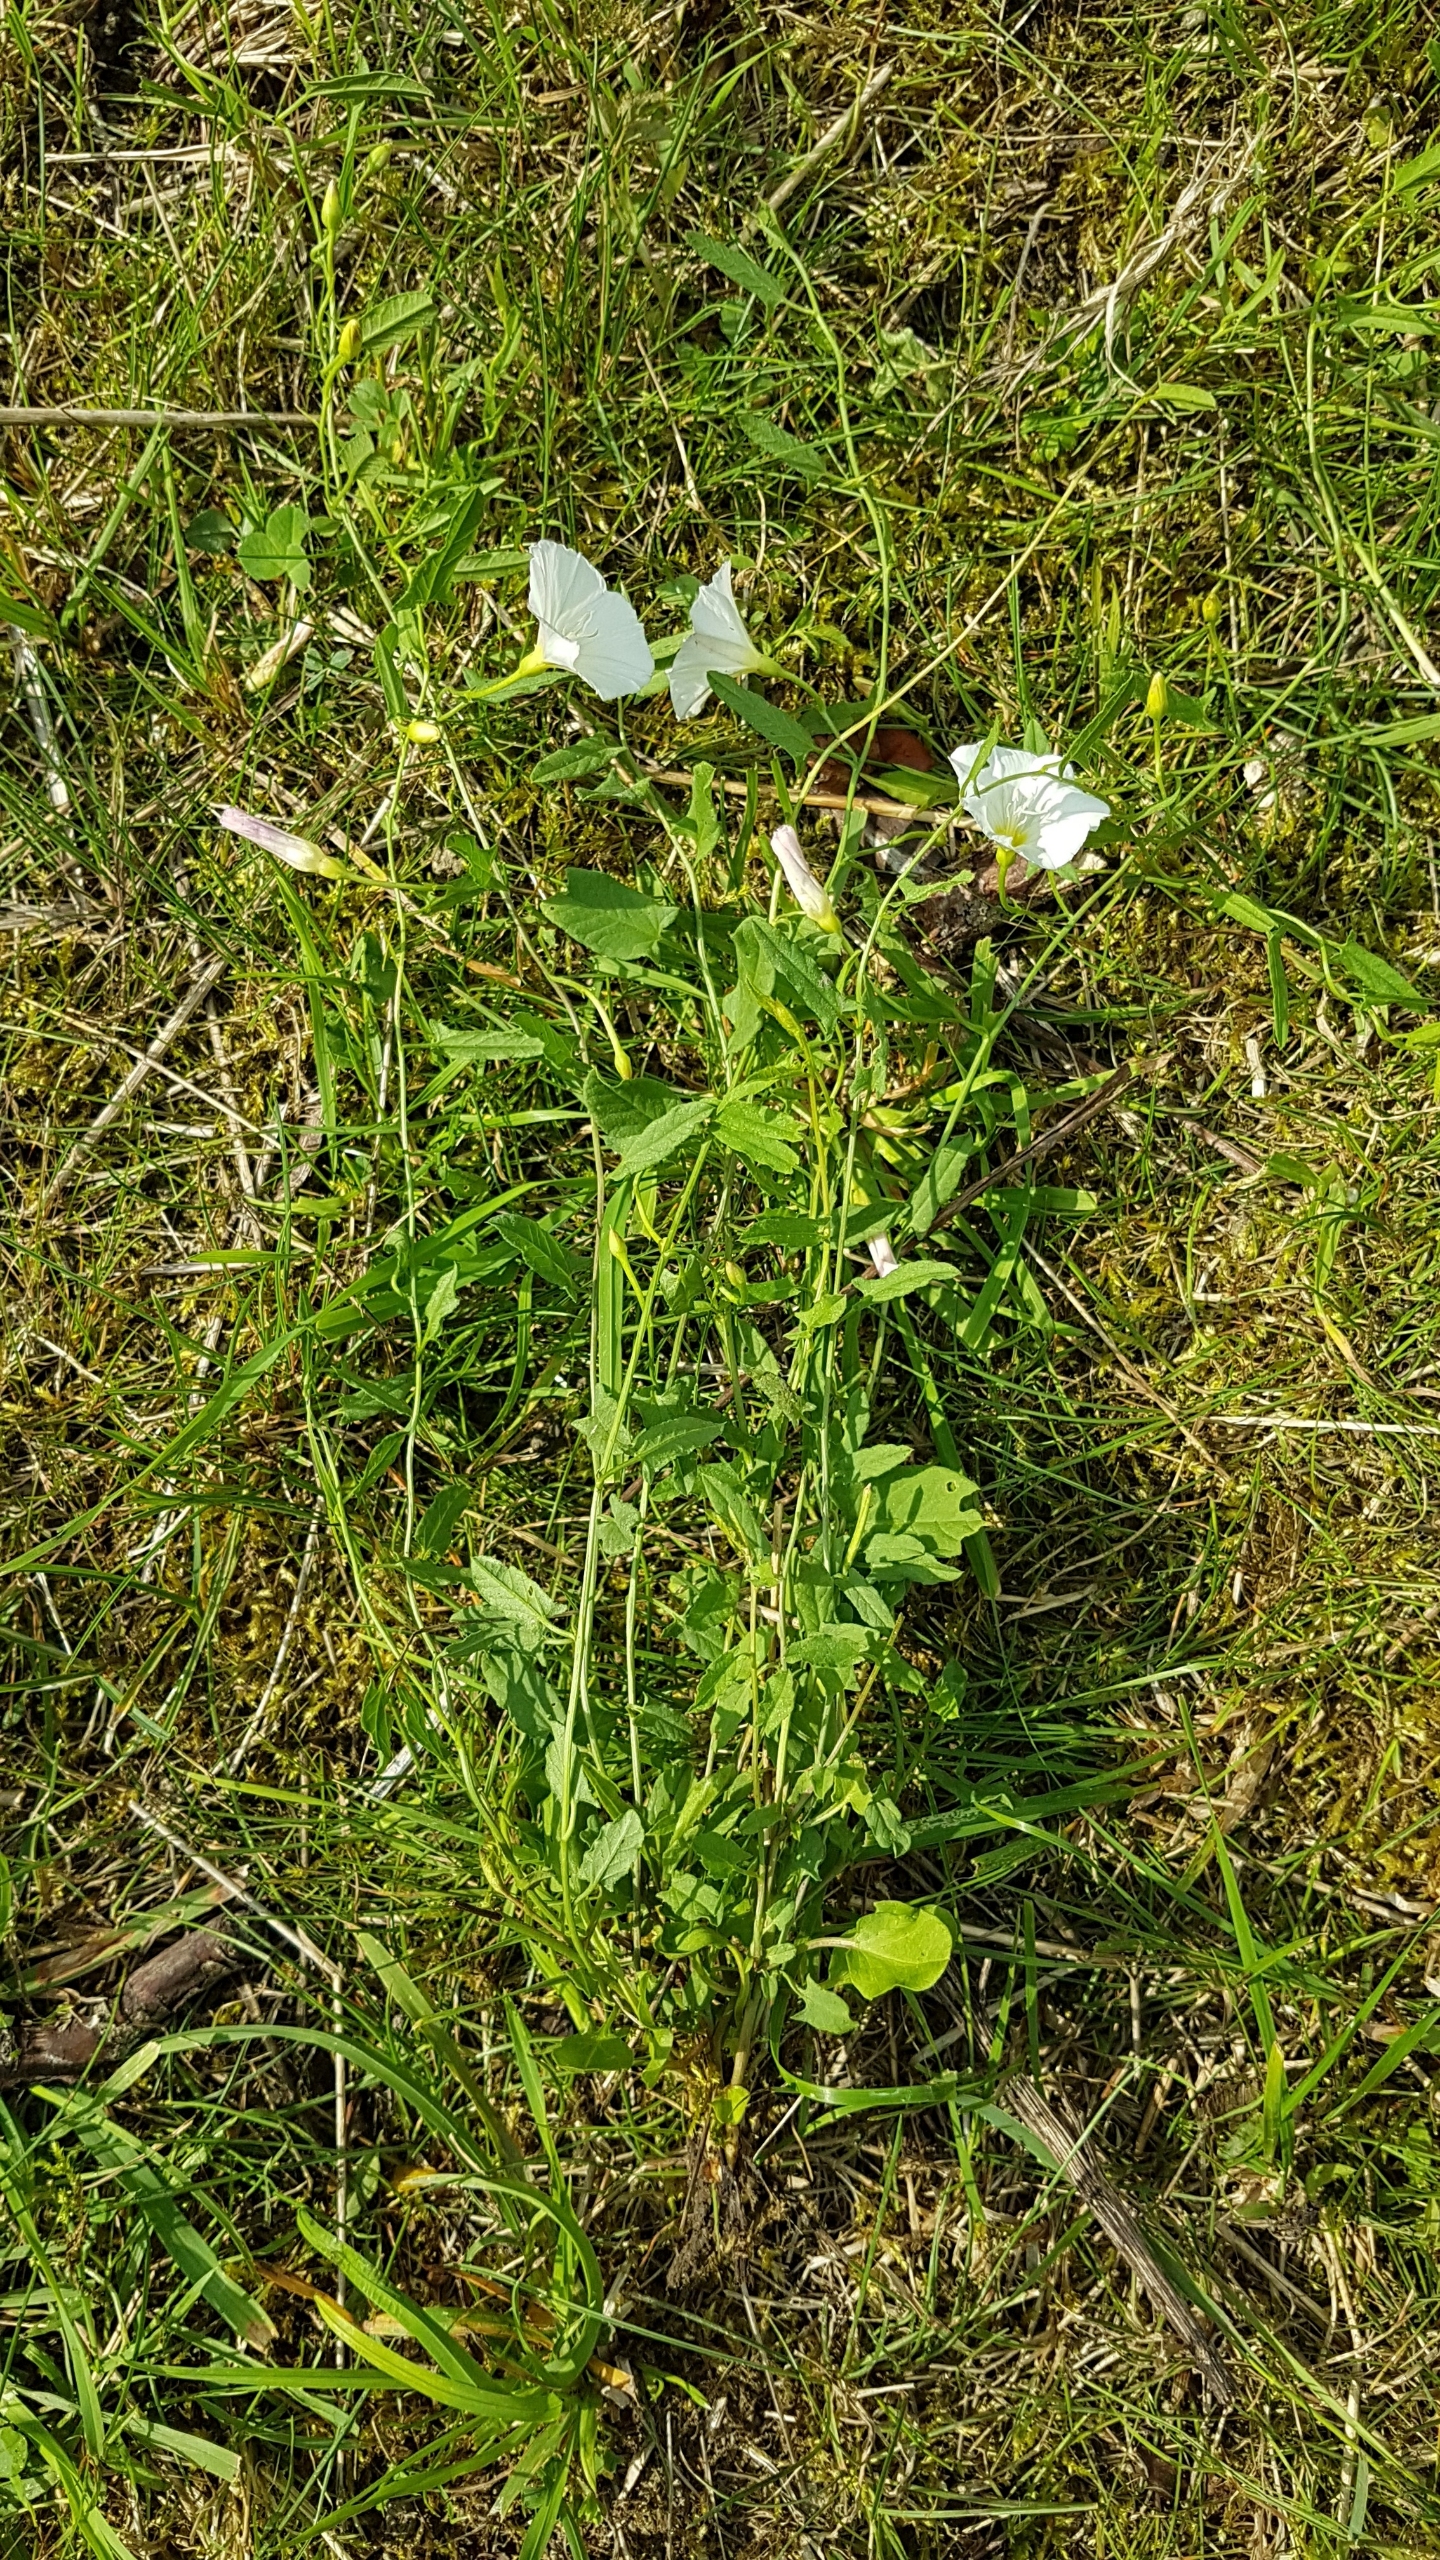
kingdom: Plantae
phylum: Tracheophyta
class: Magnoliopsida
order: Solanales
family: Convolvulaceae
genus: Convolvulus
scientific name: Convolvulus arvensis
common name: Ager-snerle
